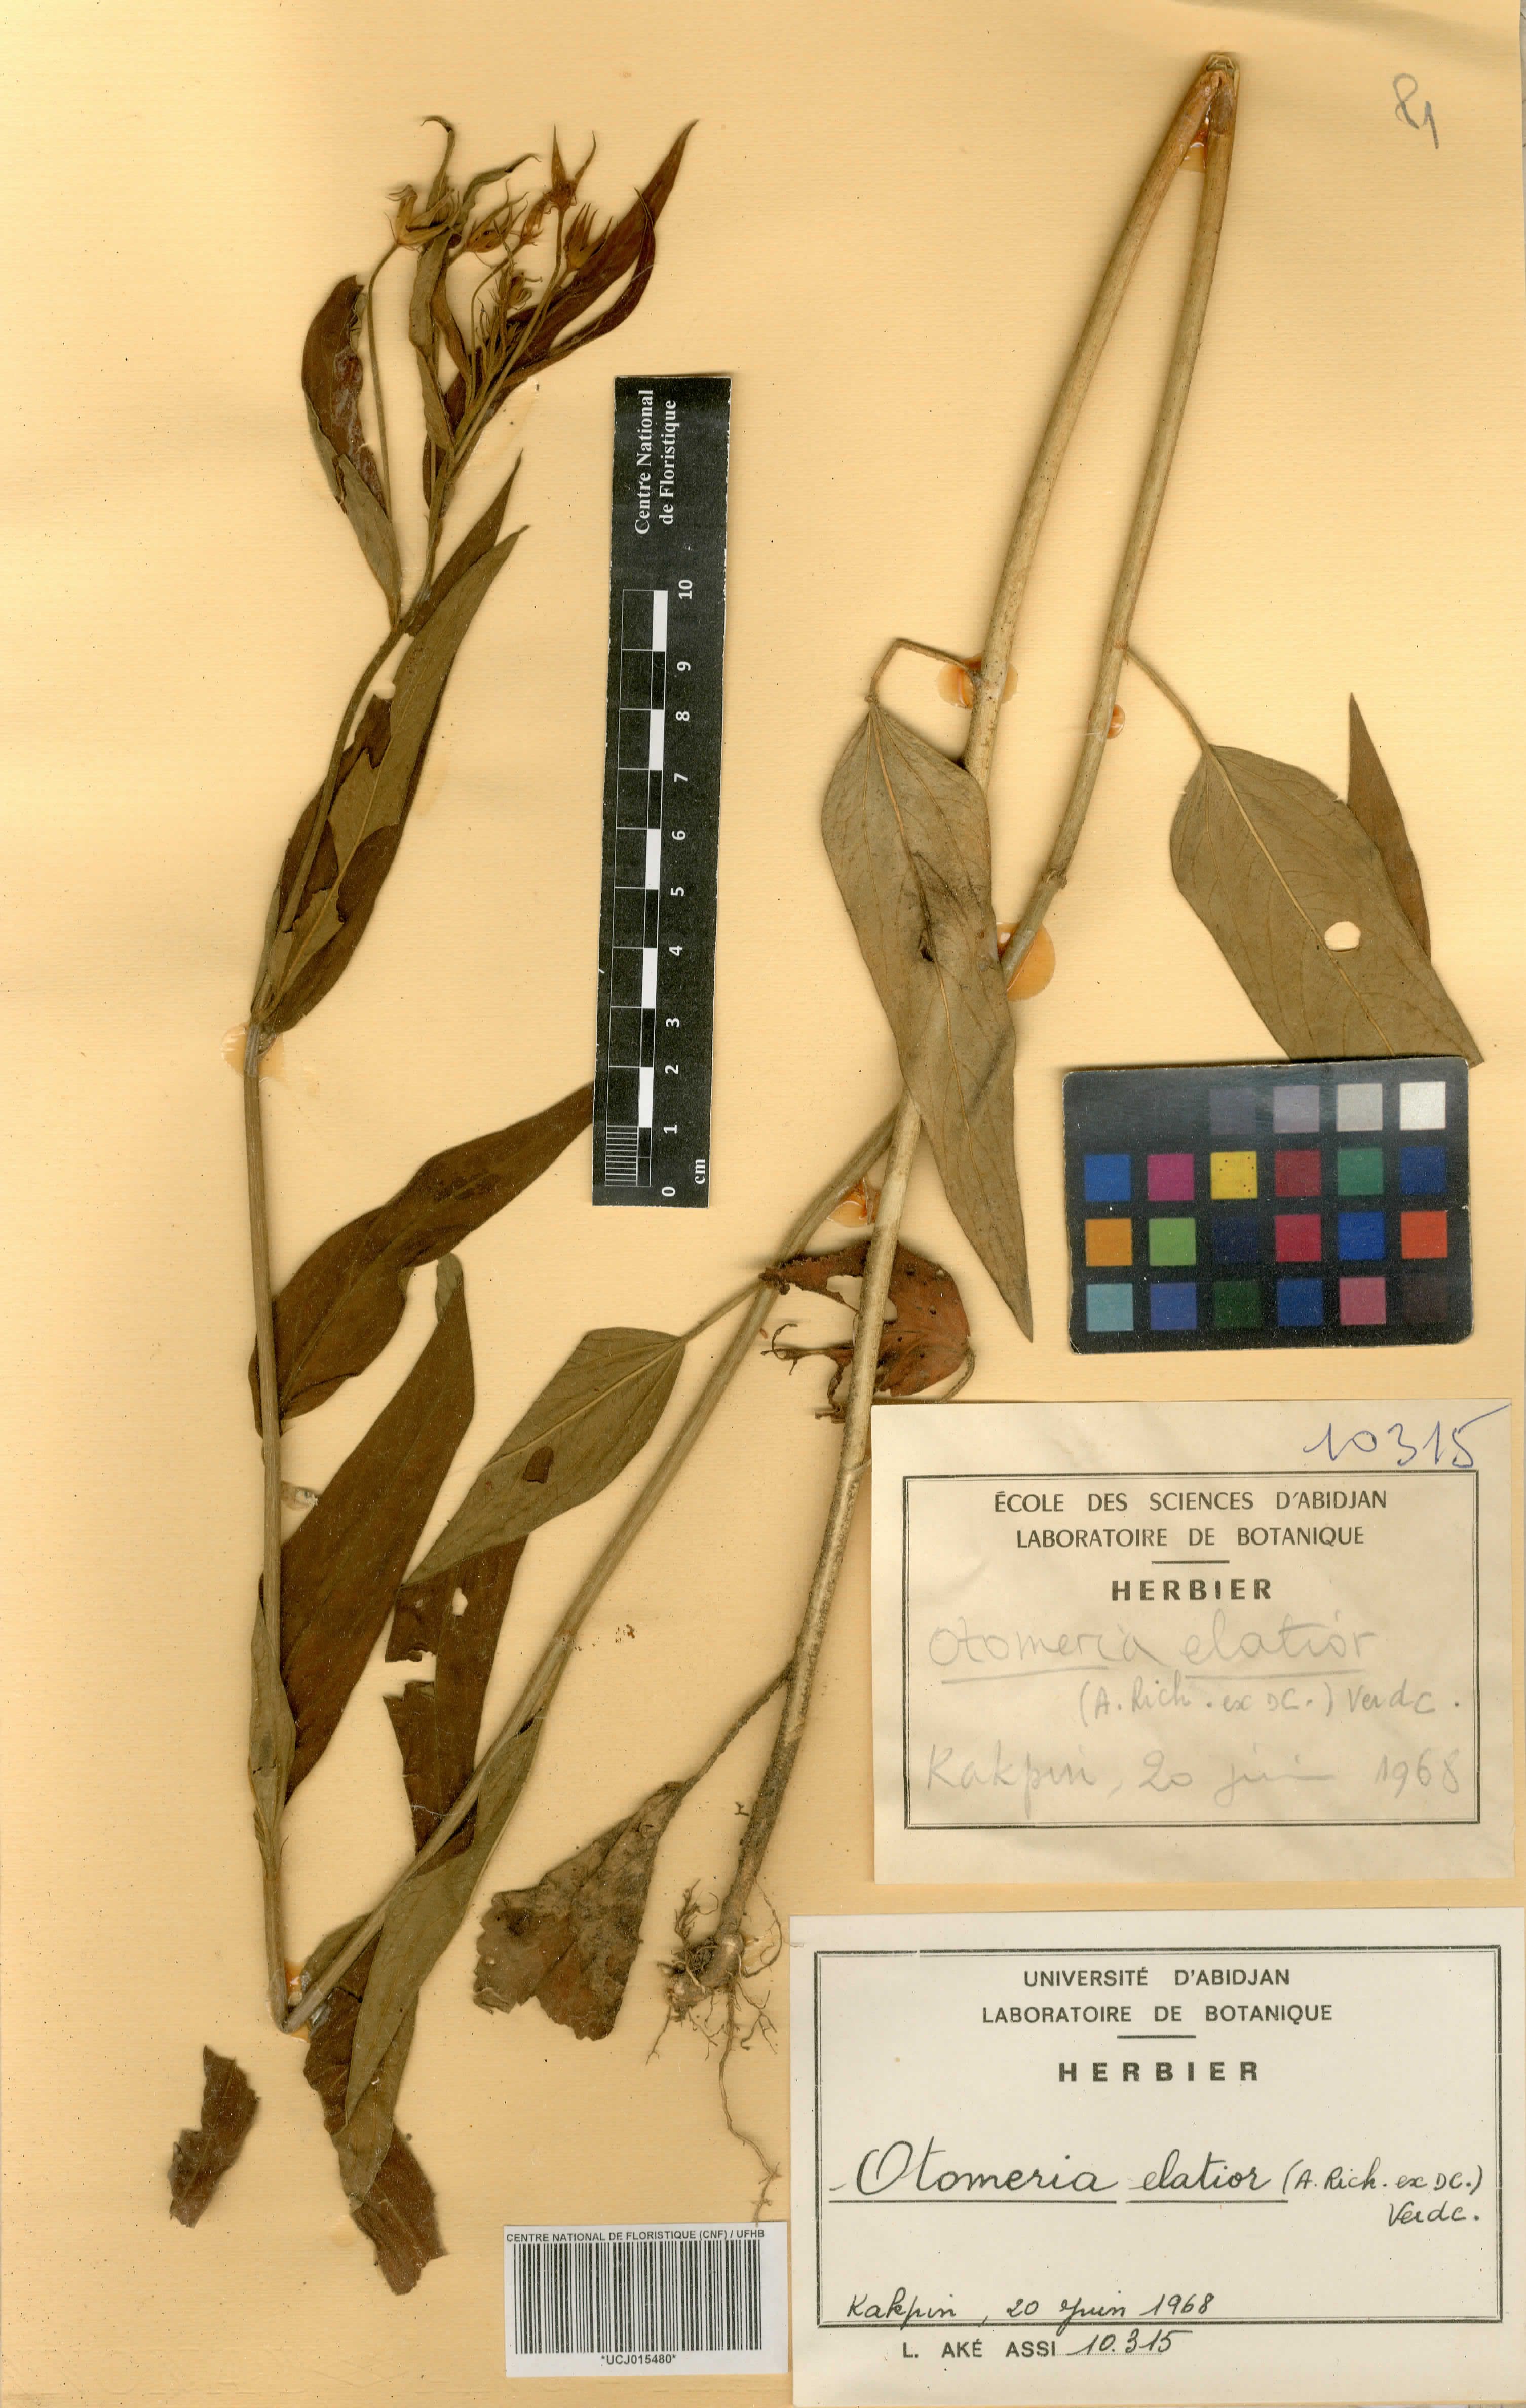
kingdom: Plantae
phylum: Tracheophyta
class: Magnoliopsida
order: Gentianales
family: Rubiaceae
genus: Otomeria
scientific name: Otomeria elatior
